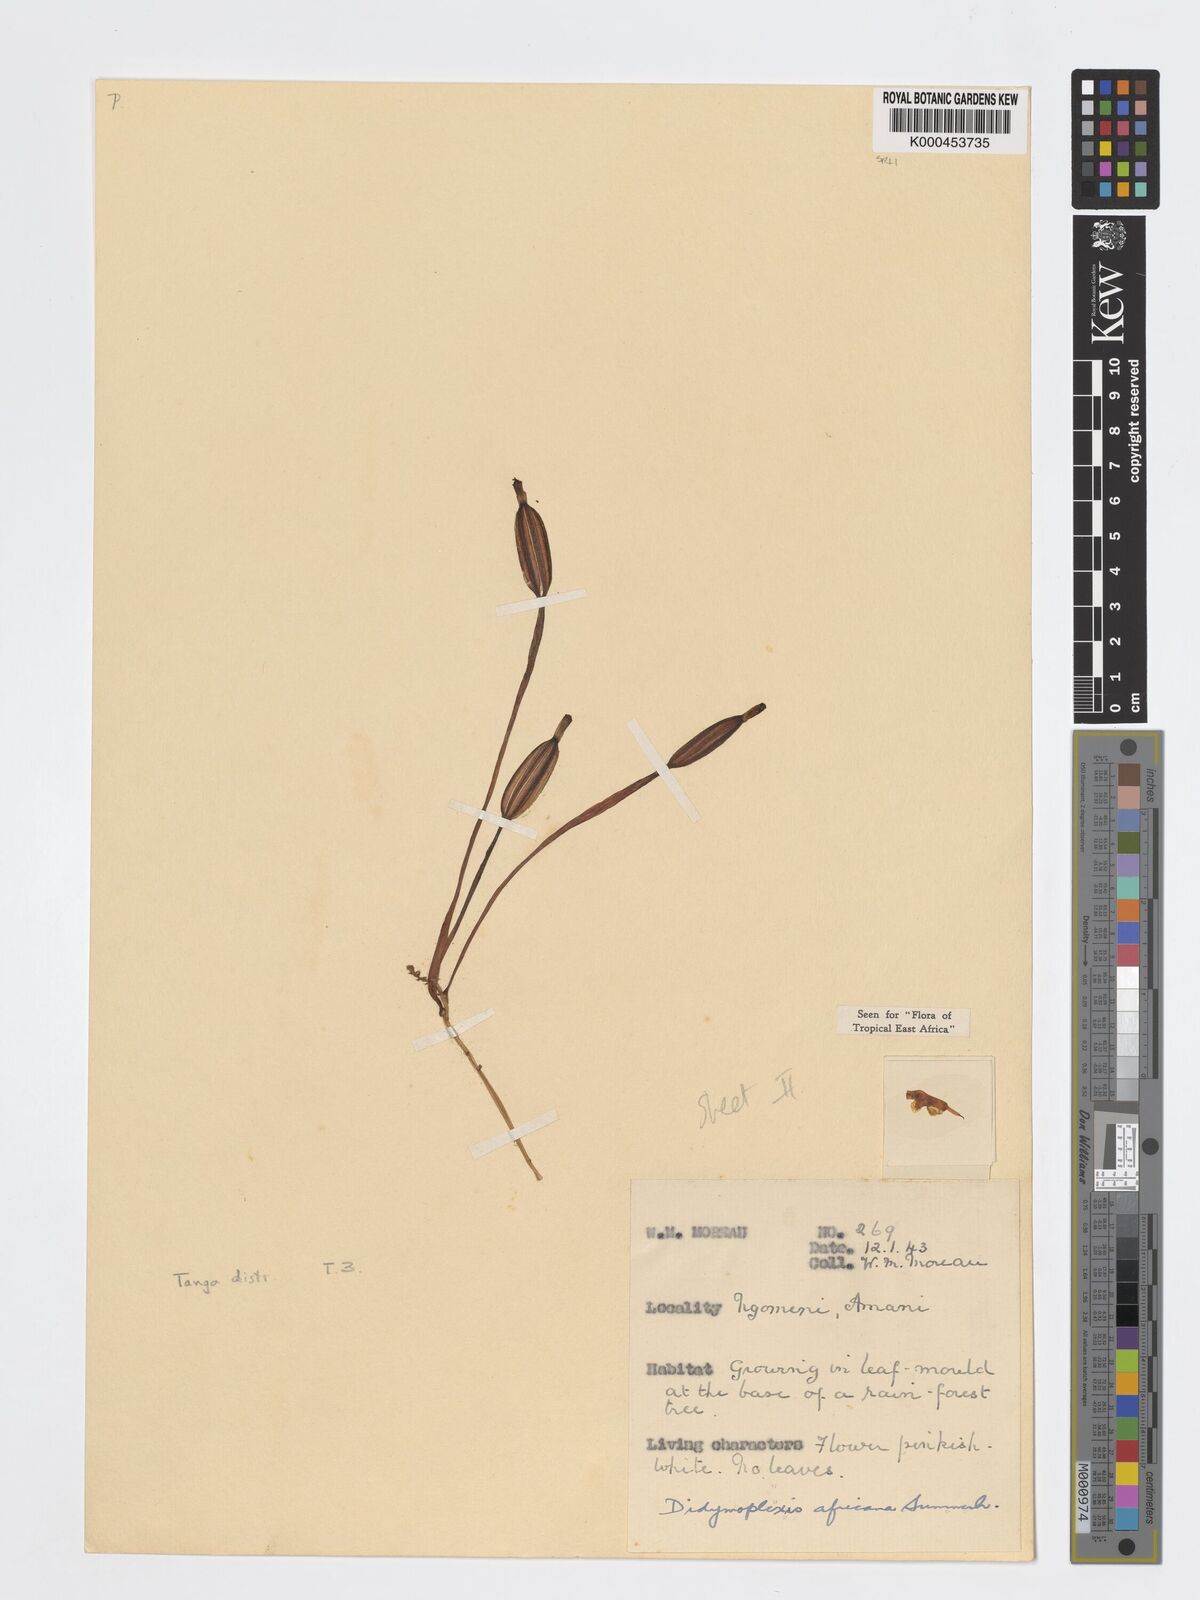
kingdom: Plantae
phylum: Tracheophyta
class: Liliopsida
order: Asparagales
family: Orchidaceae
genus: Didymoplexis
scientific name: Didymoplexis africana
